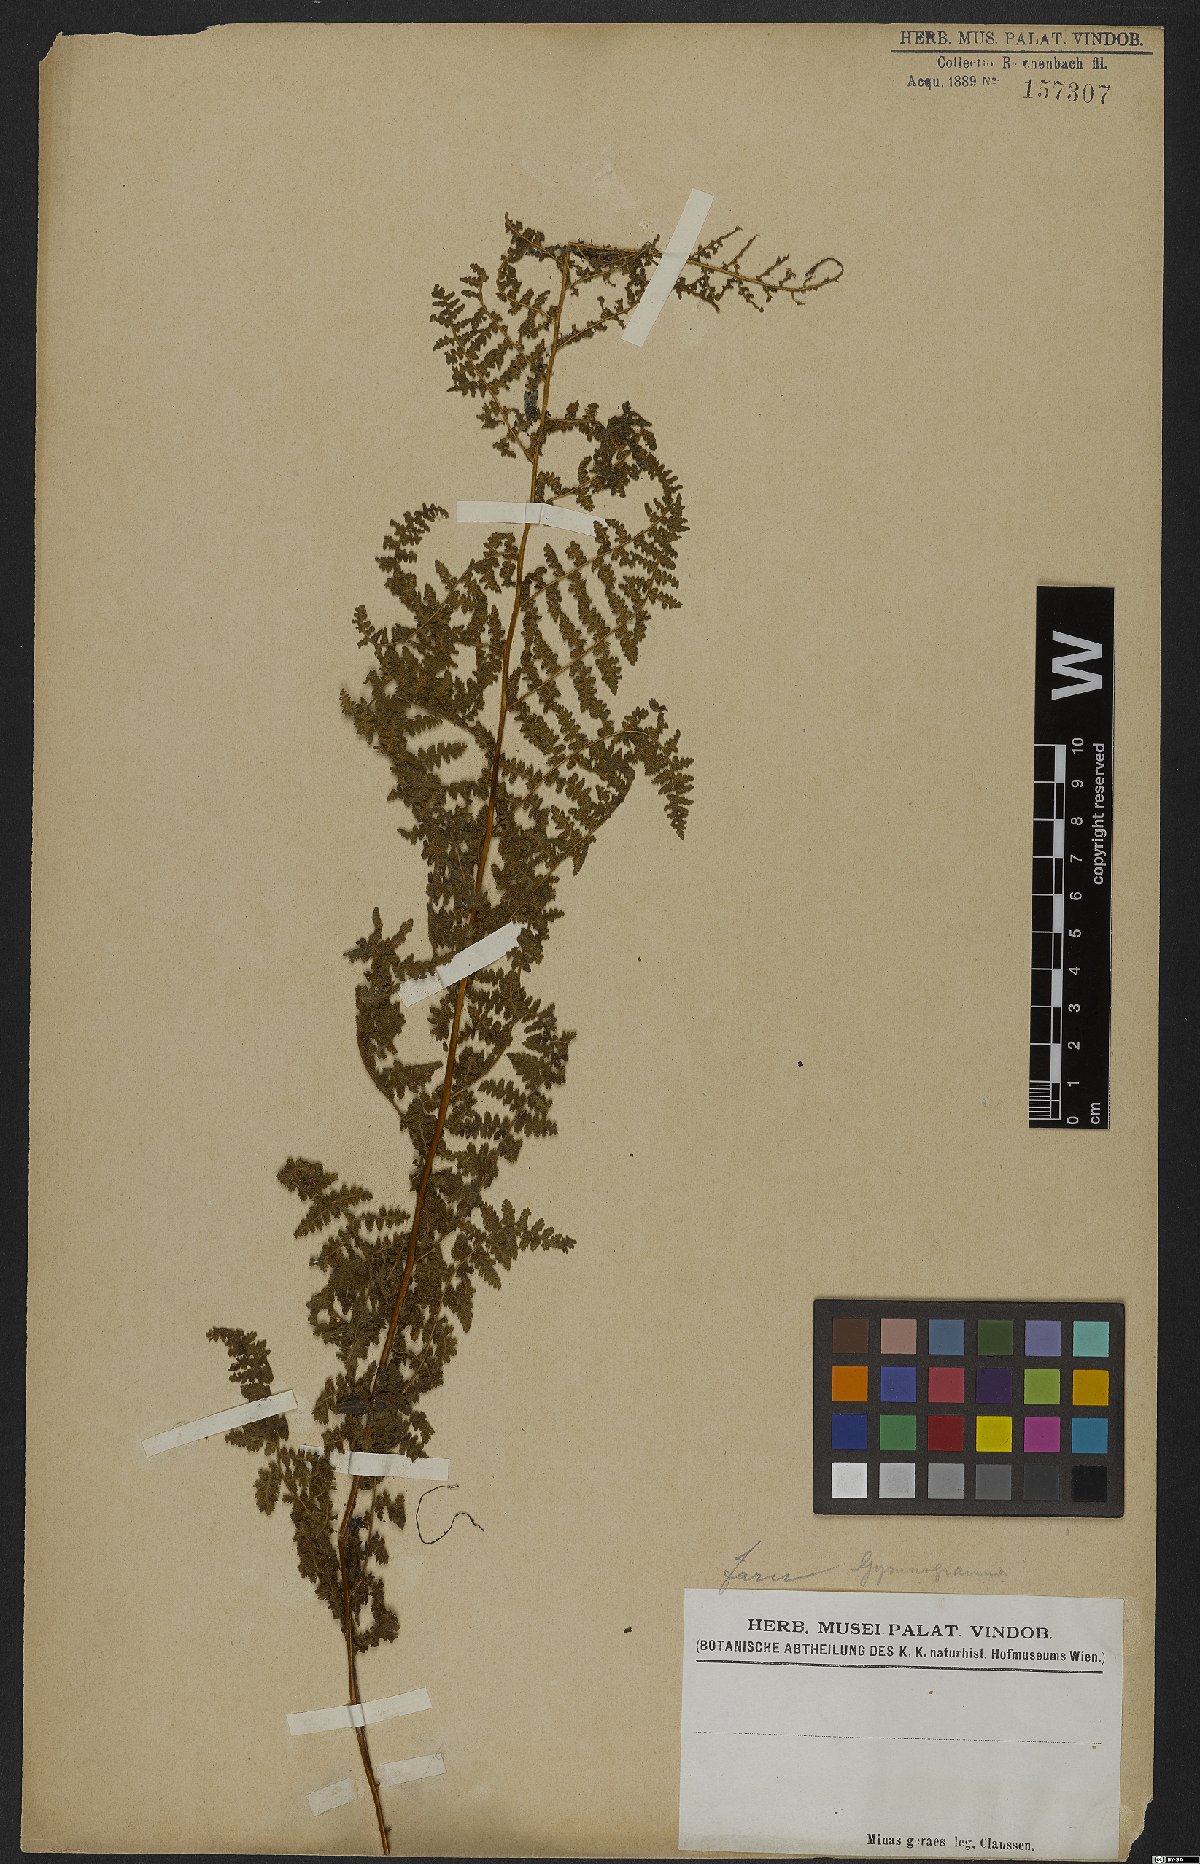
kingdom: Plantae
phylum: Tracheophyta
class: Polypodiopsida
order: Polypodiales
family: Pteridaceae
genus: Hemionitis
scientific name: Hemionitis
